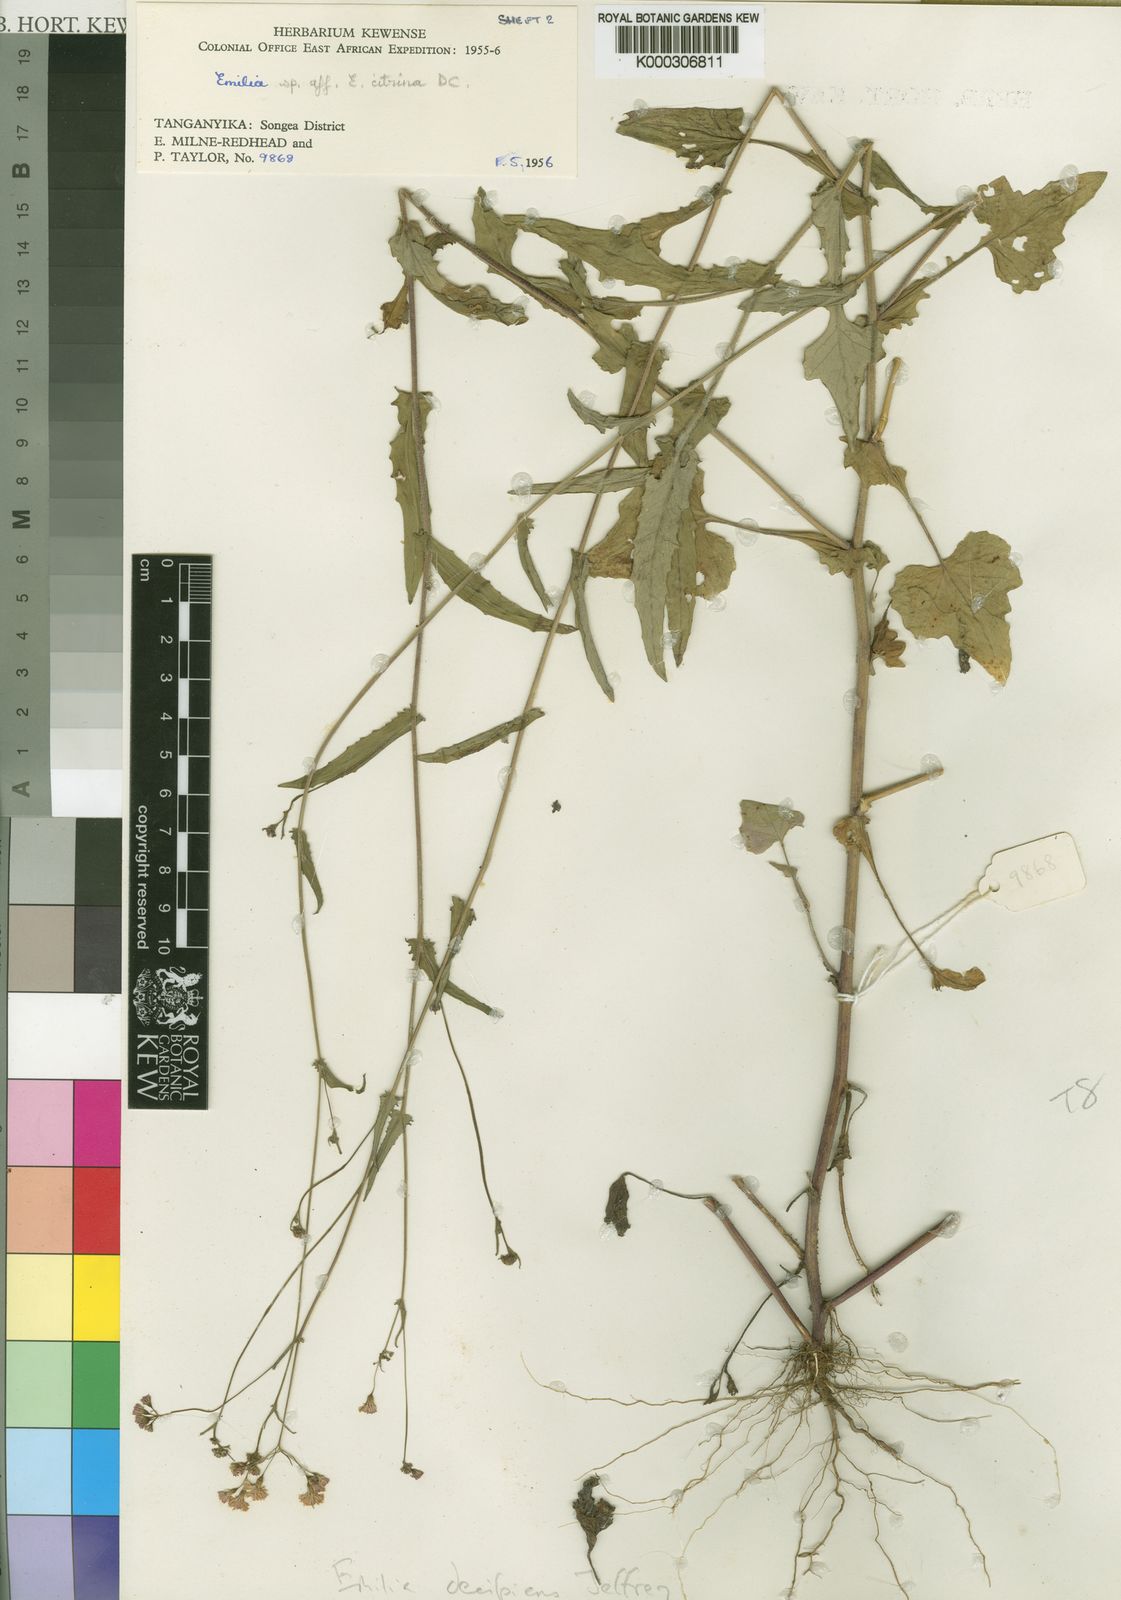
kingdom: Plantae
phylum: Tracheophyta
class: Magnoliopsida
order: Asterales
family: Asteraceae
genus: Emilia
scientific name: Emilia decipiens
